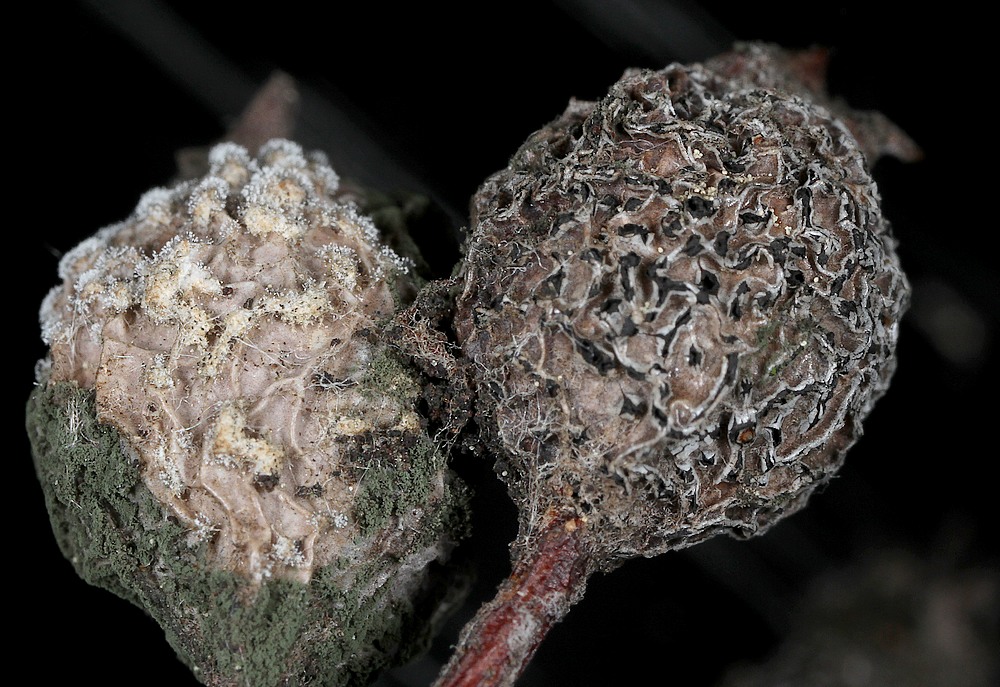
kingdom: Fungi
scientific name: Fungi
